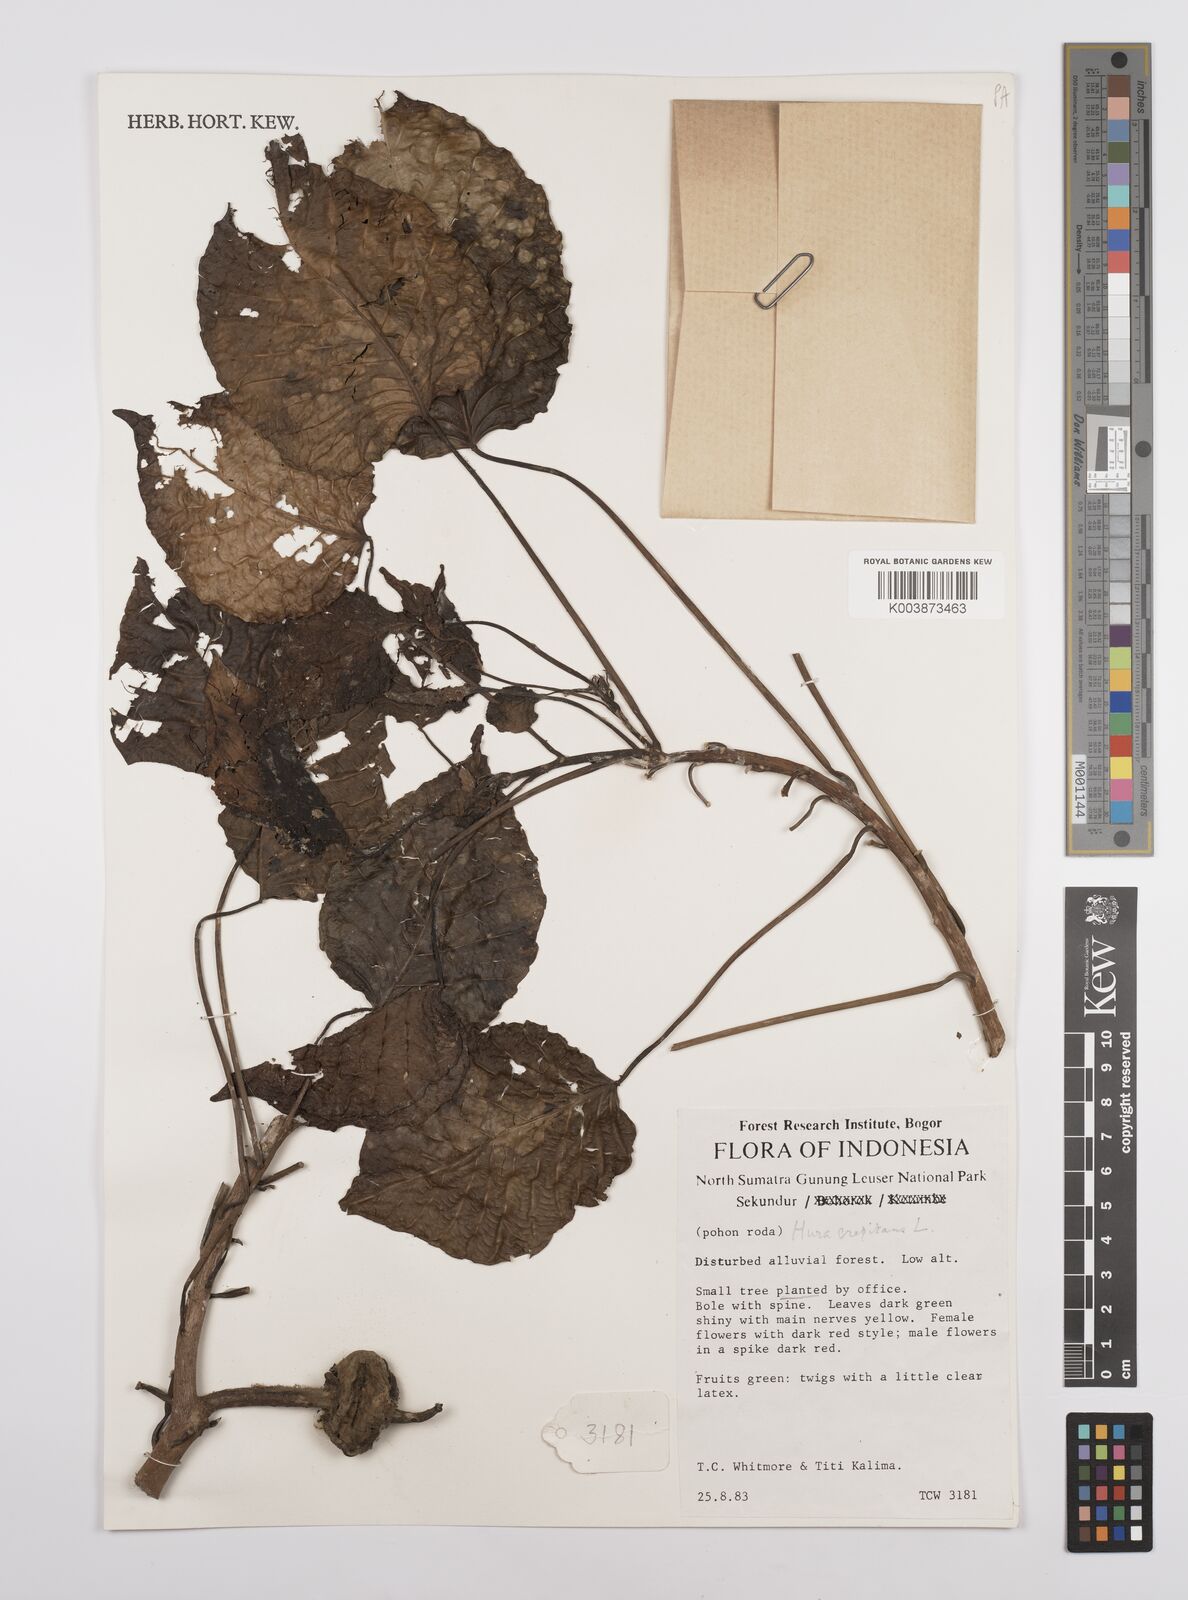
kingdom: Plantae
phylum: Tracheophyta
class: Magnoliopsida
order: Malpighiales
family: Euphorbiaceae
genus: Hura
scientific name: Hura crepitans
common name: Sandboxtree
